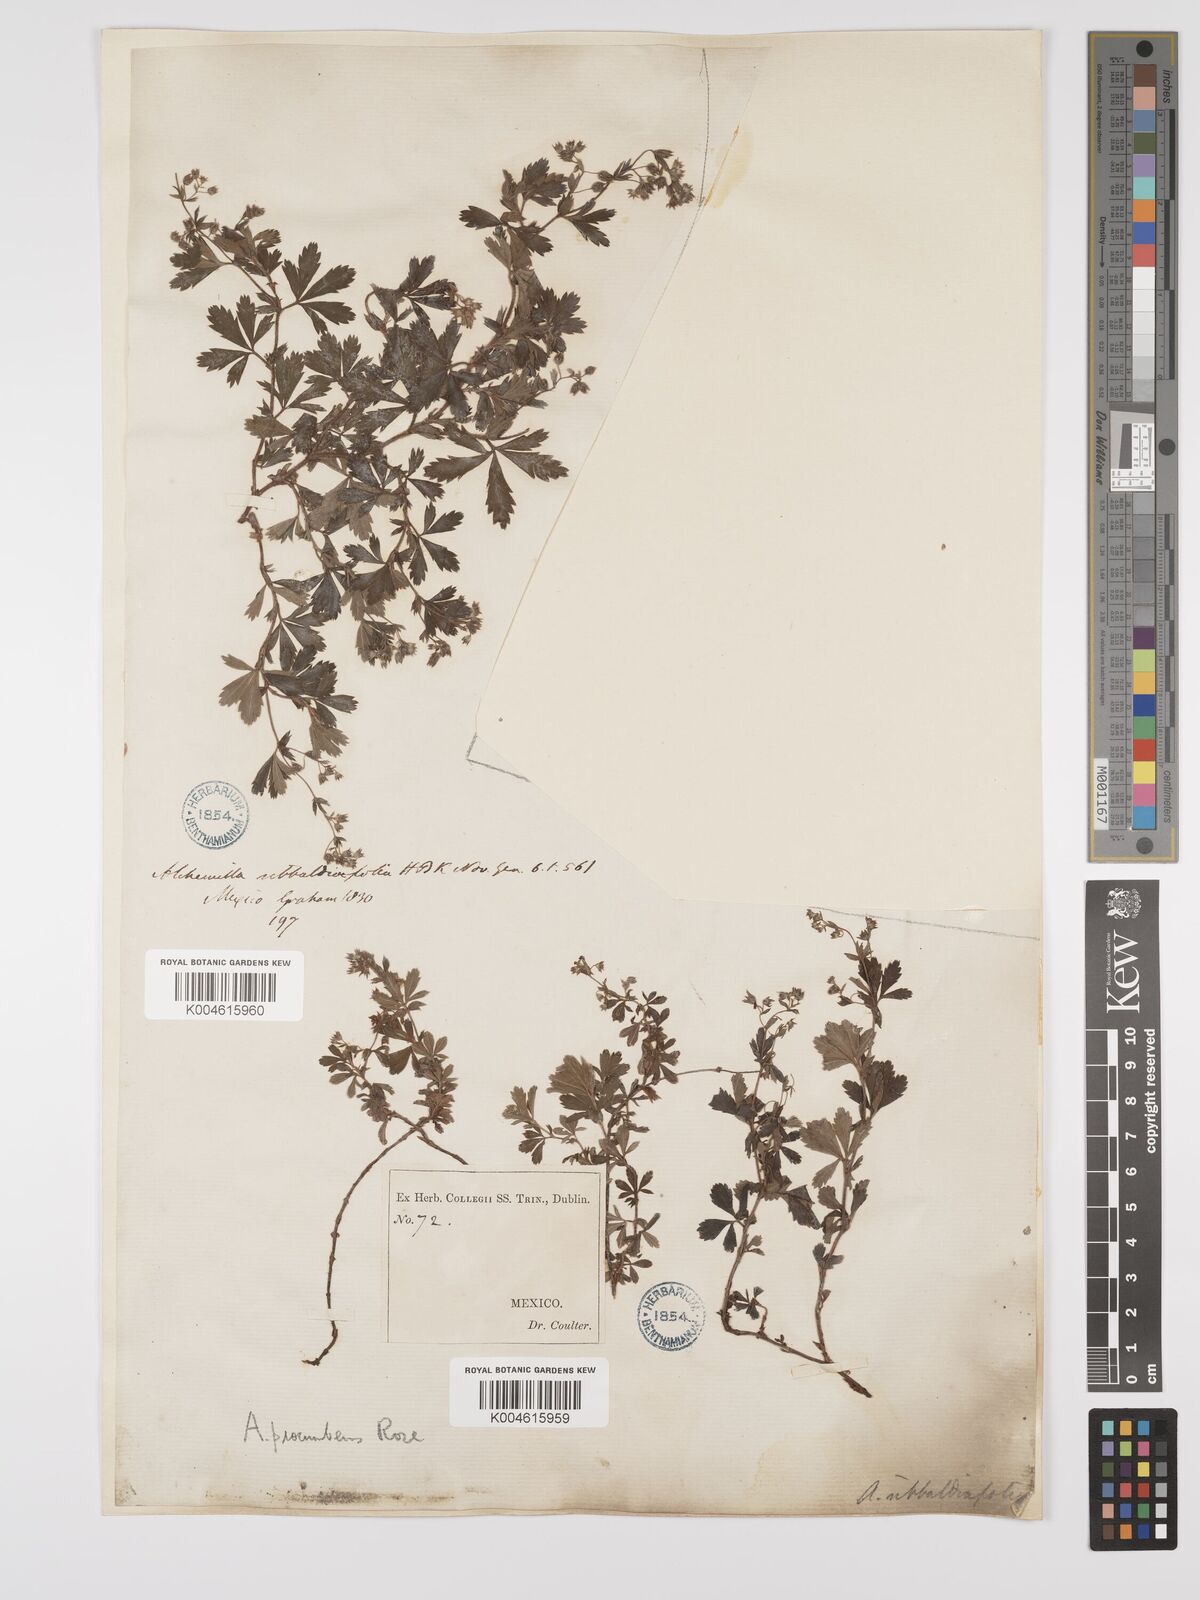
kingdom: Plantae
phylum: Tracheophyta
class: Magnoliopsida
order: Rosales
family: Rosaceae
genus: Lachemilla
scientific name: Lachemilla procumbens
